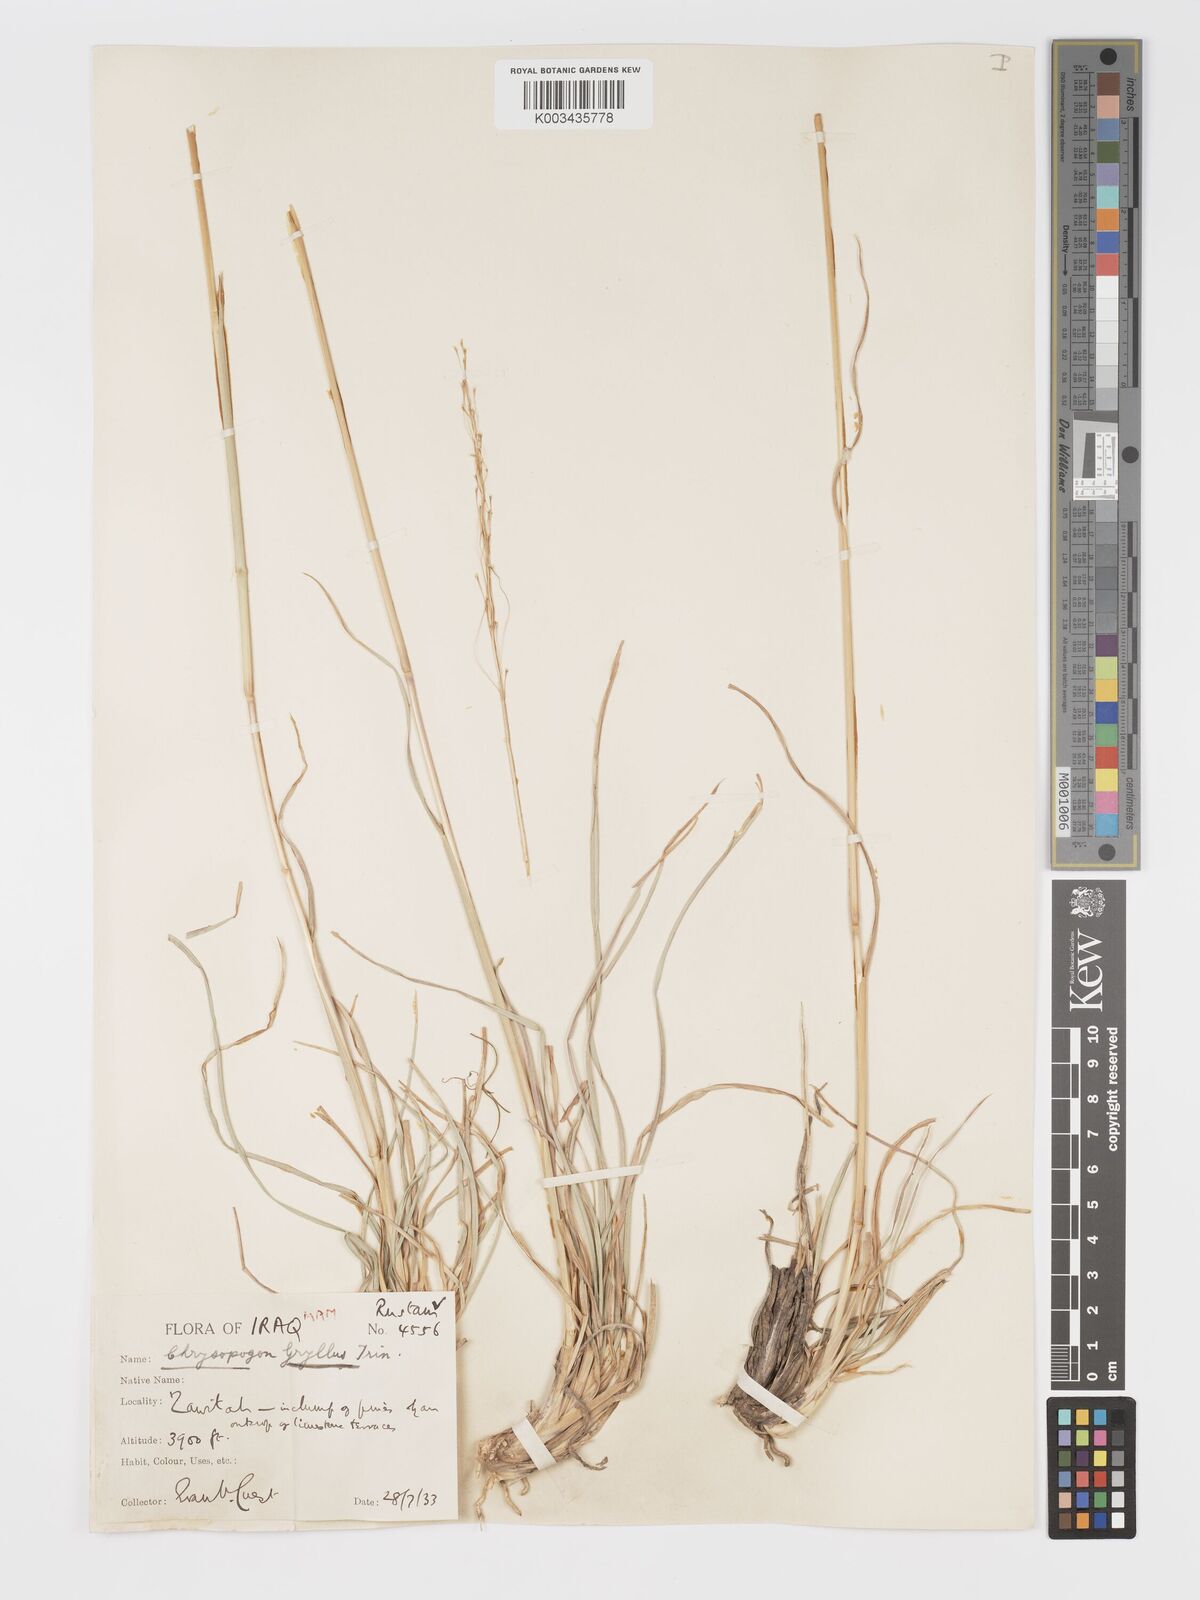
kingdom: Plantae
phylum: Tracheophyta
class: Liliopsida
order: Poales
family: Poaceae
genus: Chrysopogon
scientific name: Chrysopogon gryllus
